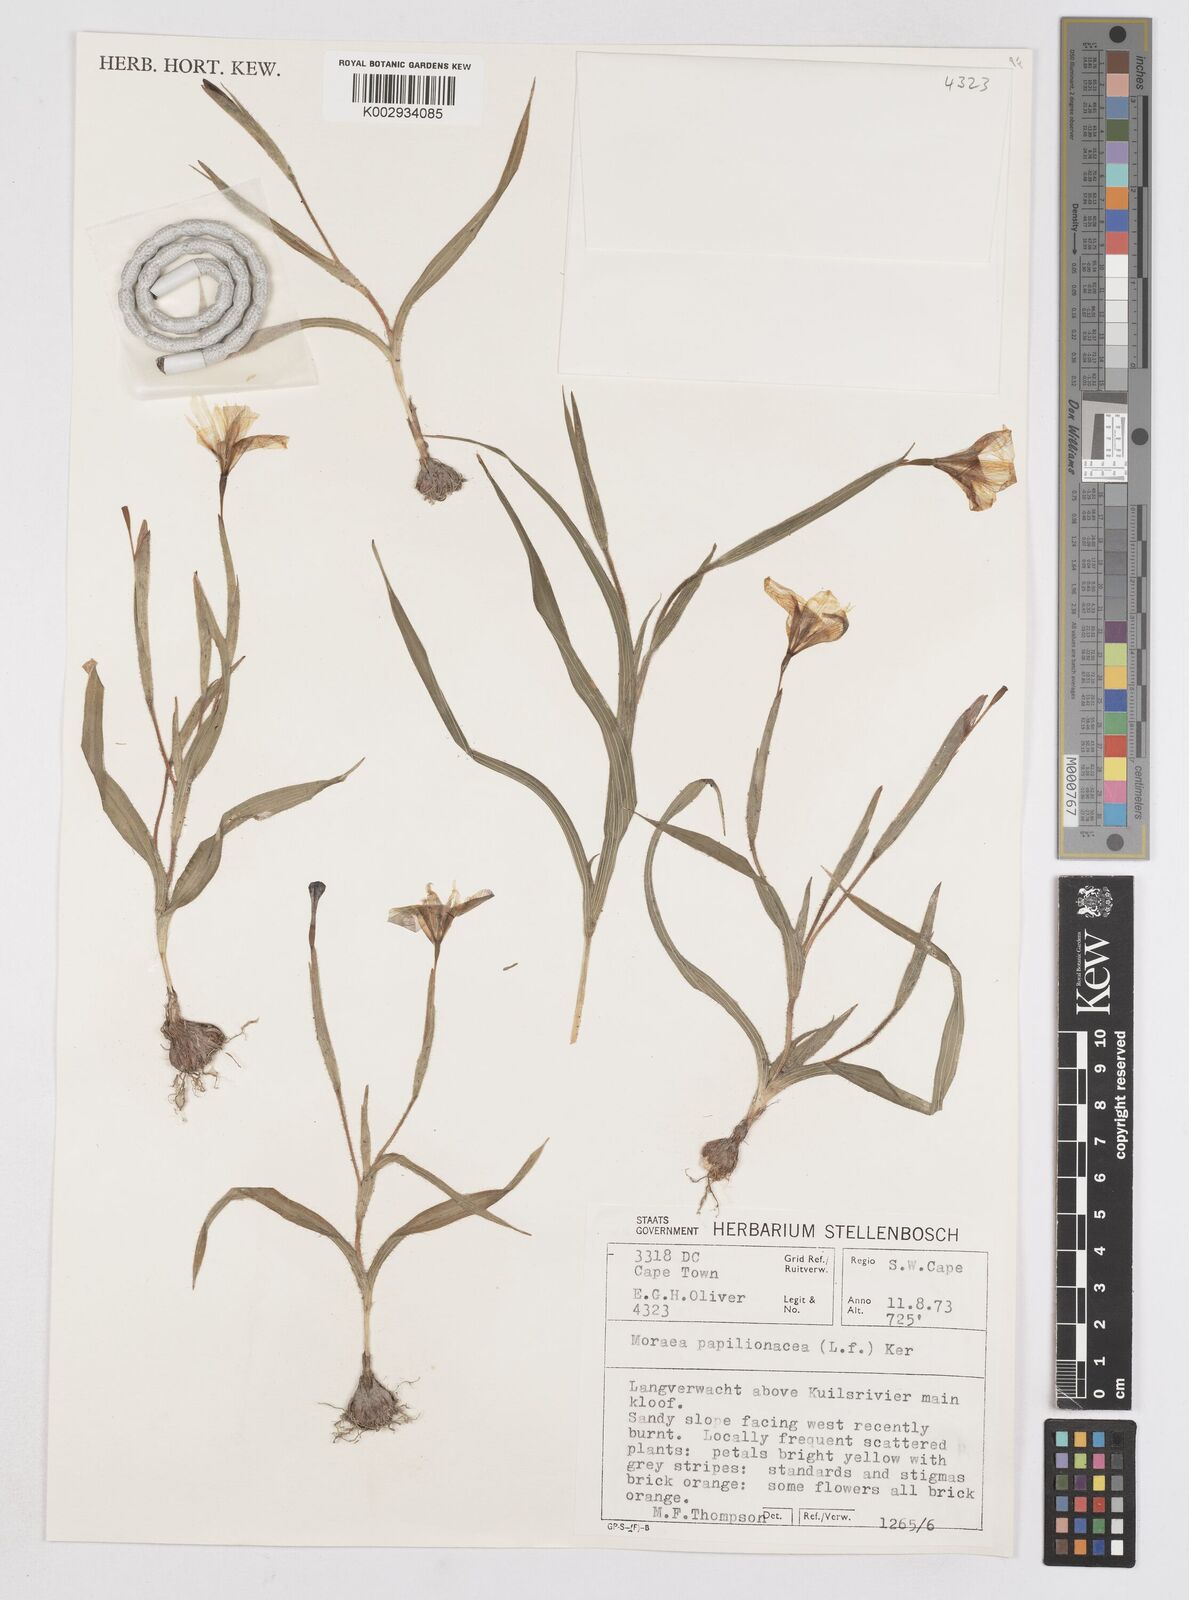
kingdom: Plantae
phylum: Tracheophyta
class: Liliopsida
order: Asparagales
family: Iridaceae
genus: Moraea
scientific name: Moraea papilionacea
